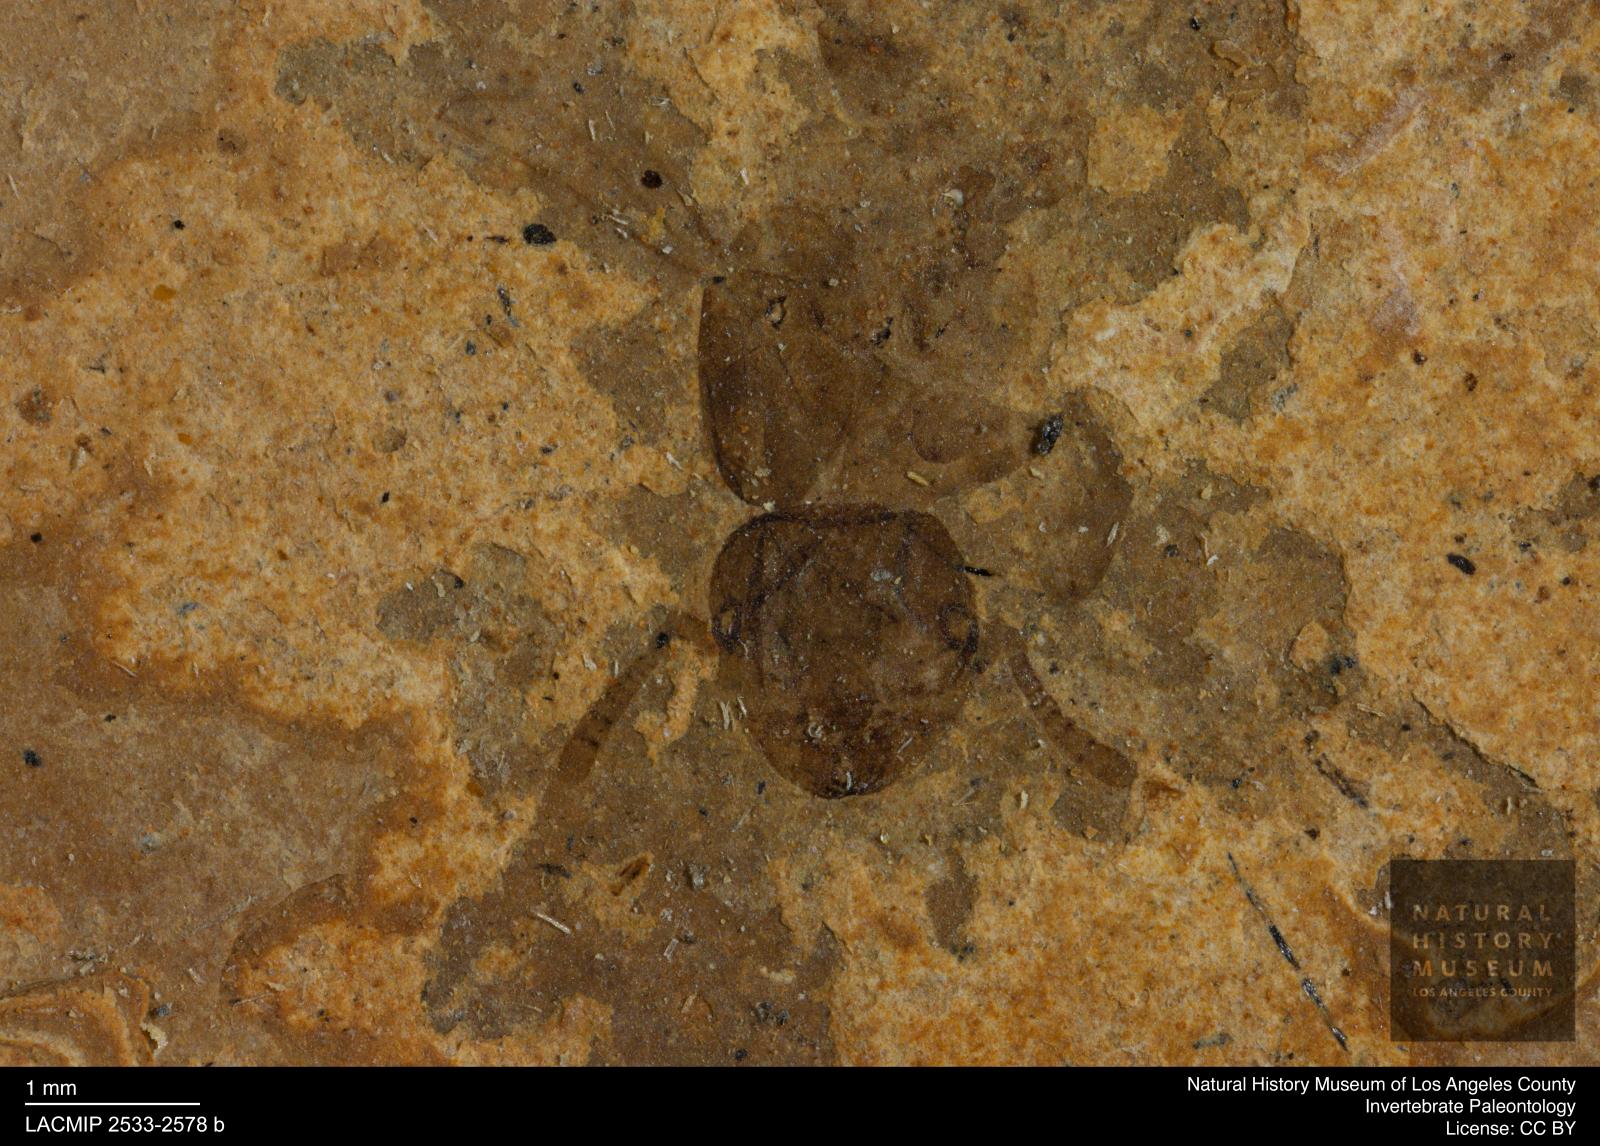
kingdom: Animalia
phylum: Arthropoda
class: Insecta
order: Hymenoptera
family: Formicidae
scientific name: Formicidae
